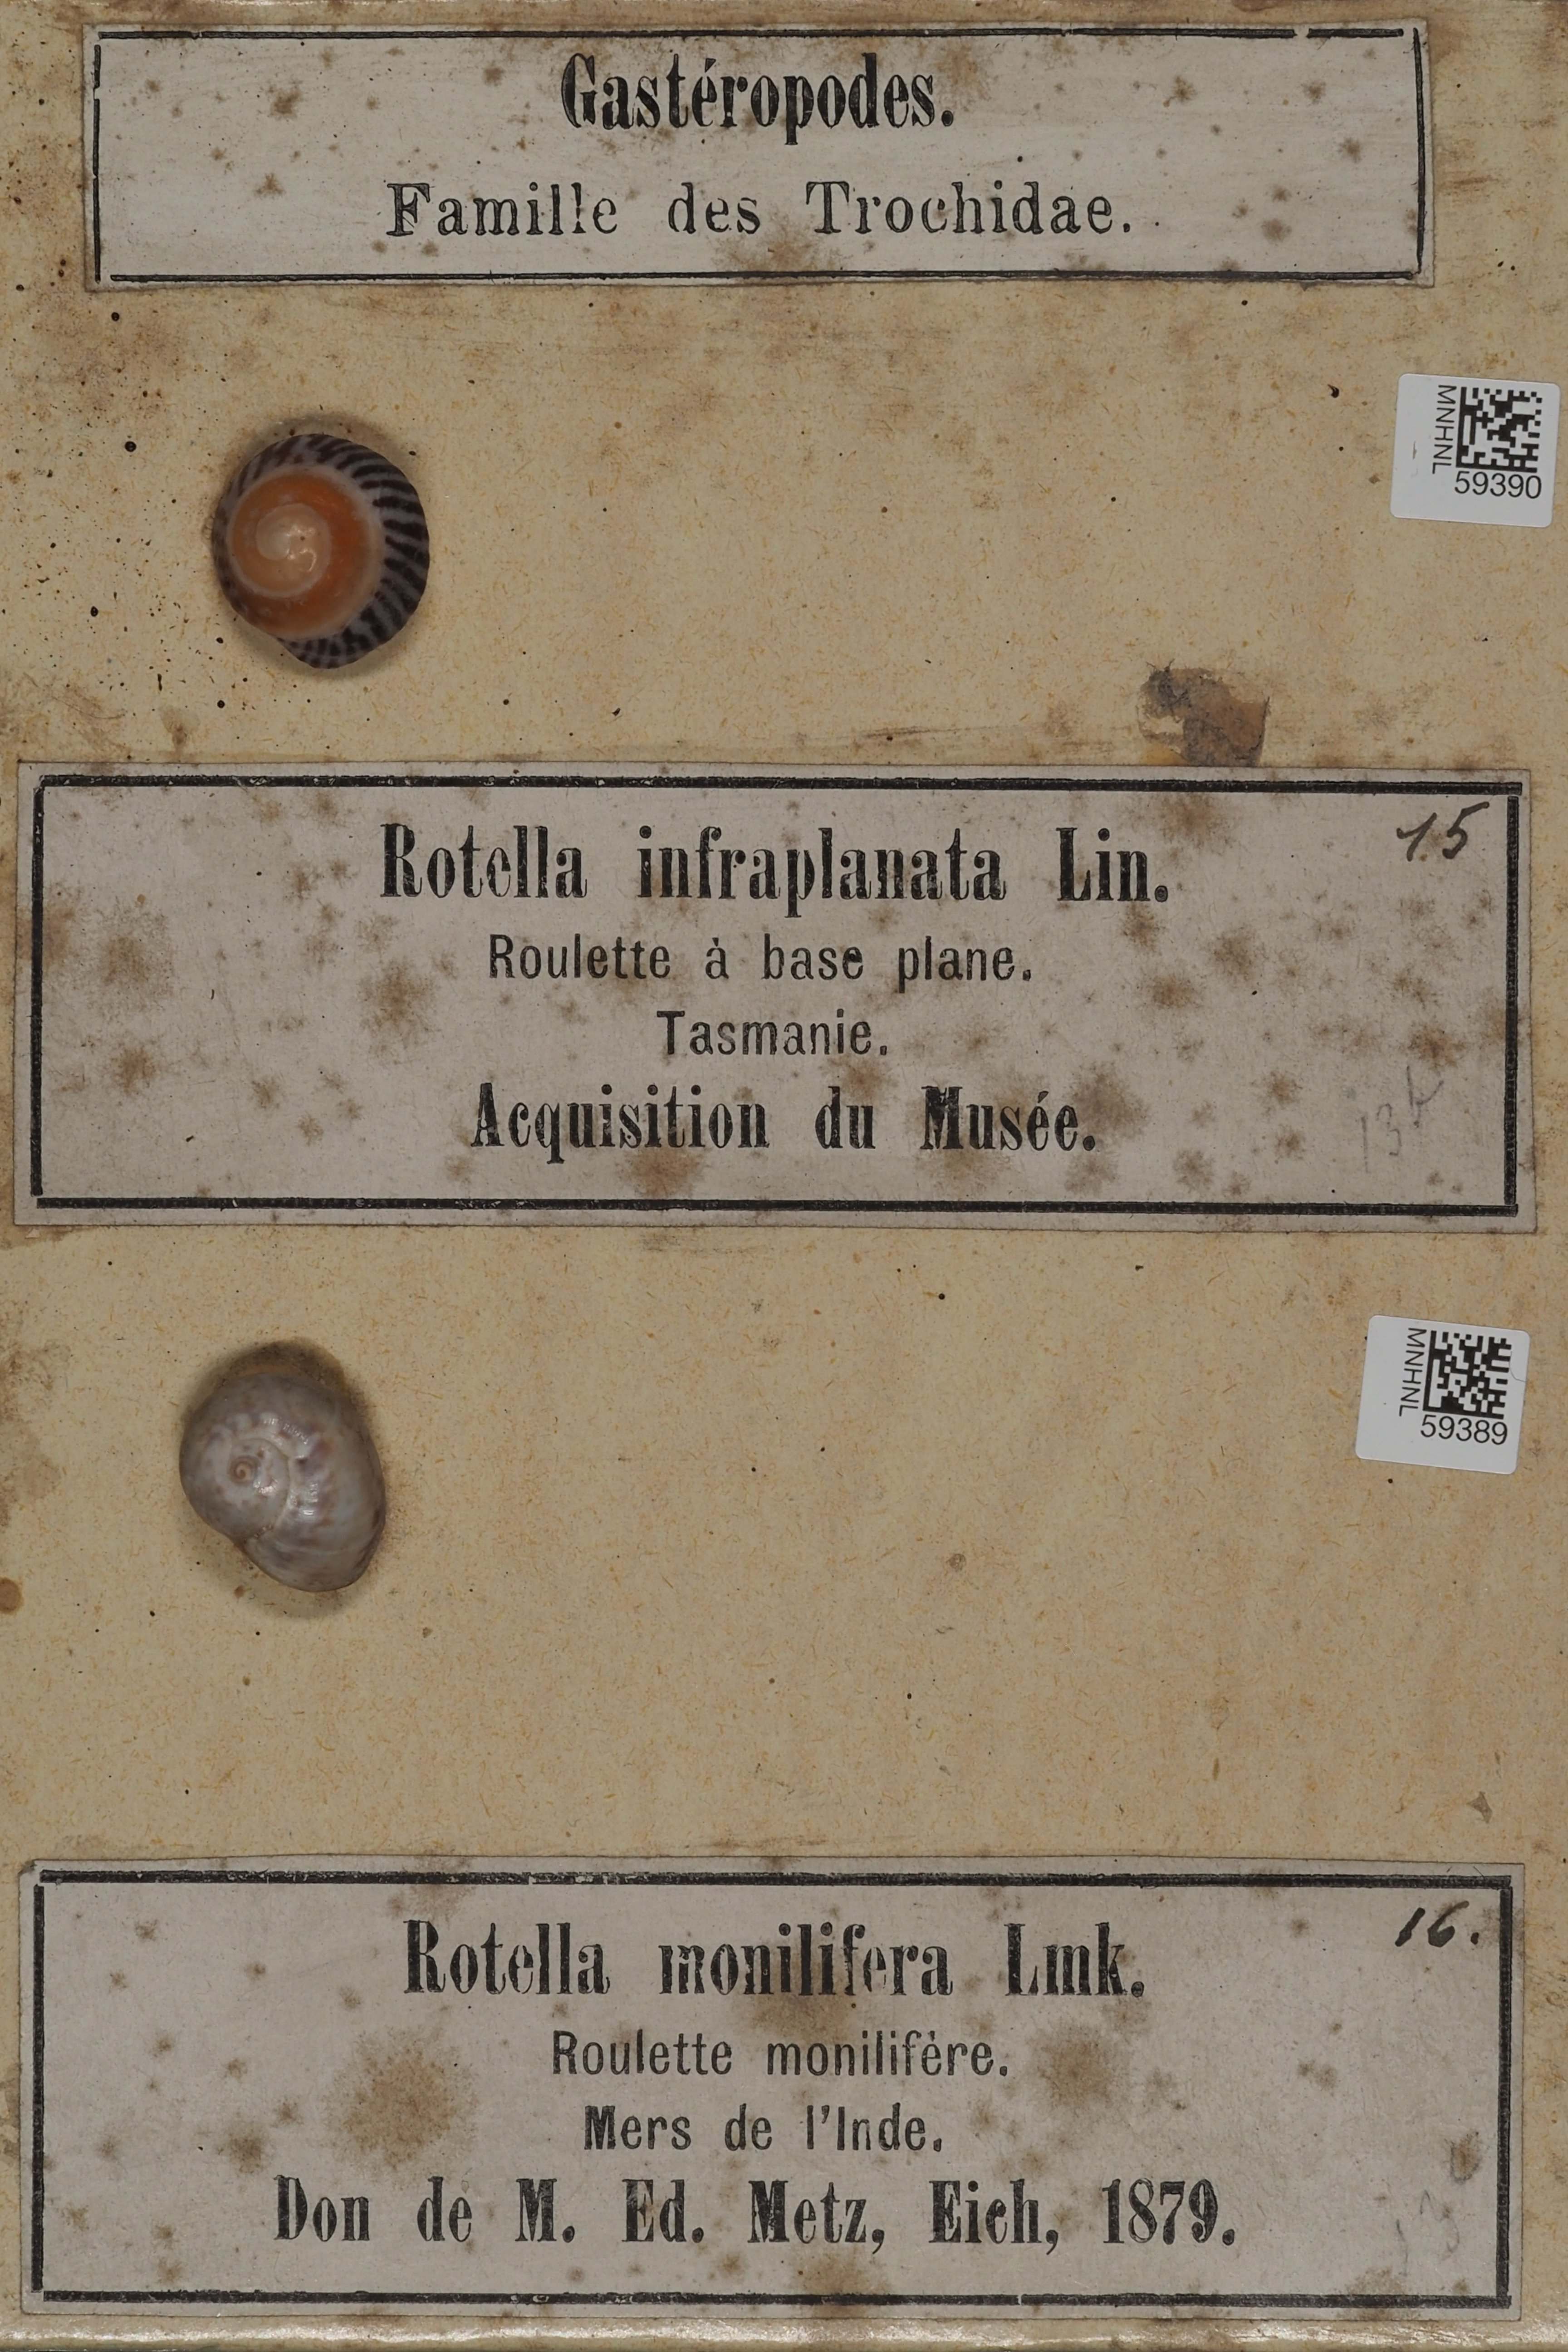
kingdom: Animalia
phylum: Mollusca
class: Gastropoda
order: Trochida
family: Trochidae
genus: Umbonium
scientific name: Umbonium moniliferum
